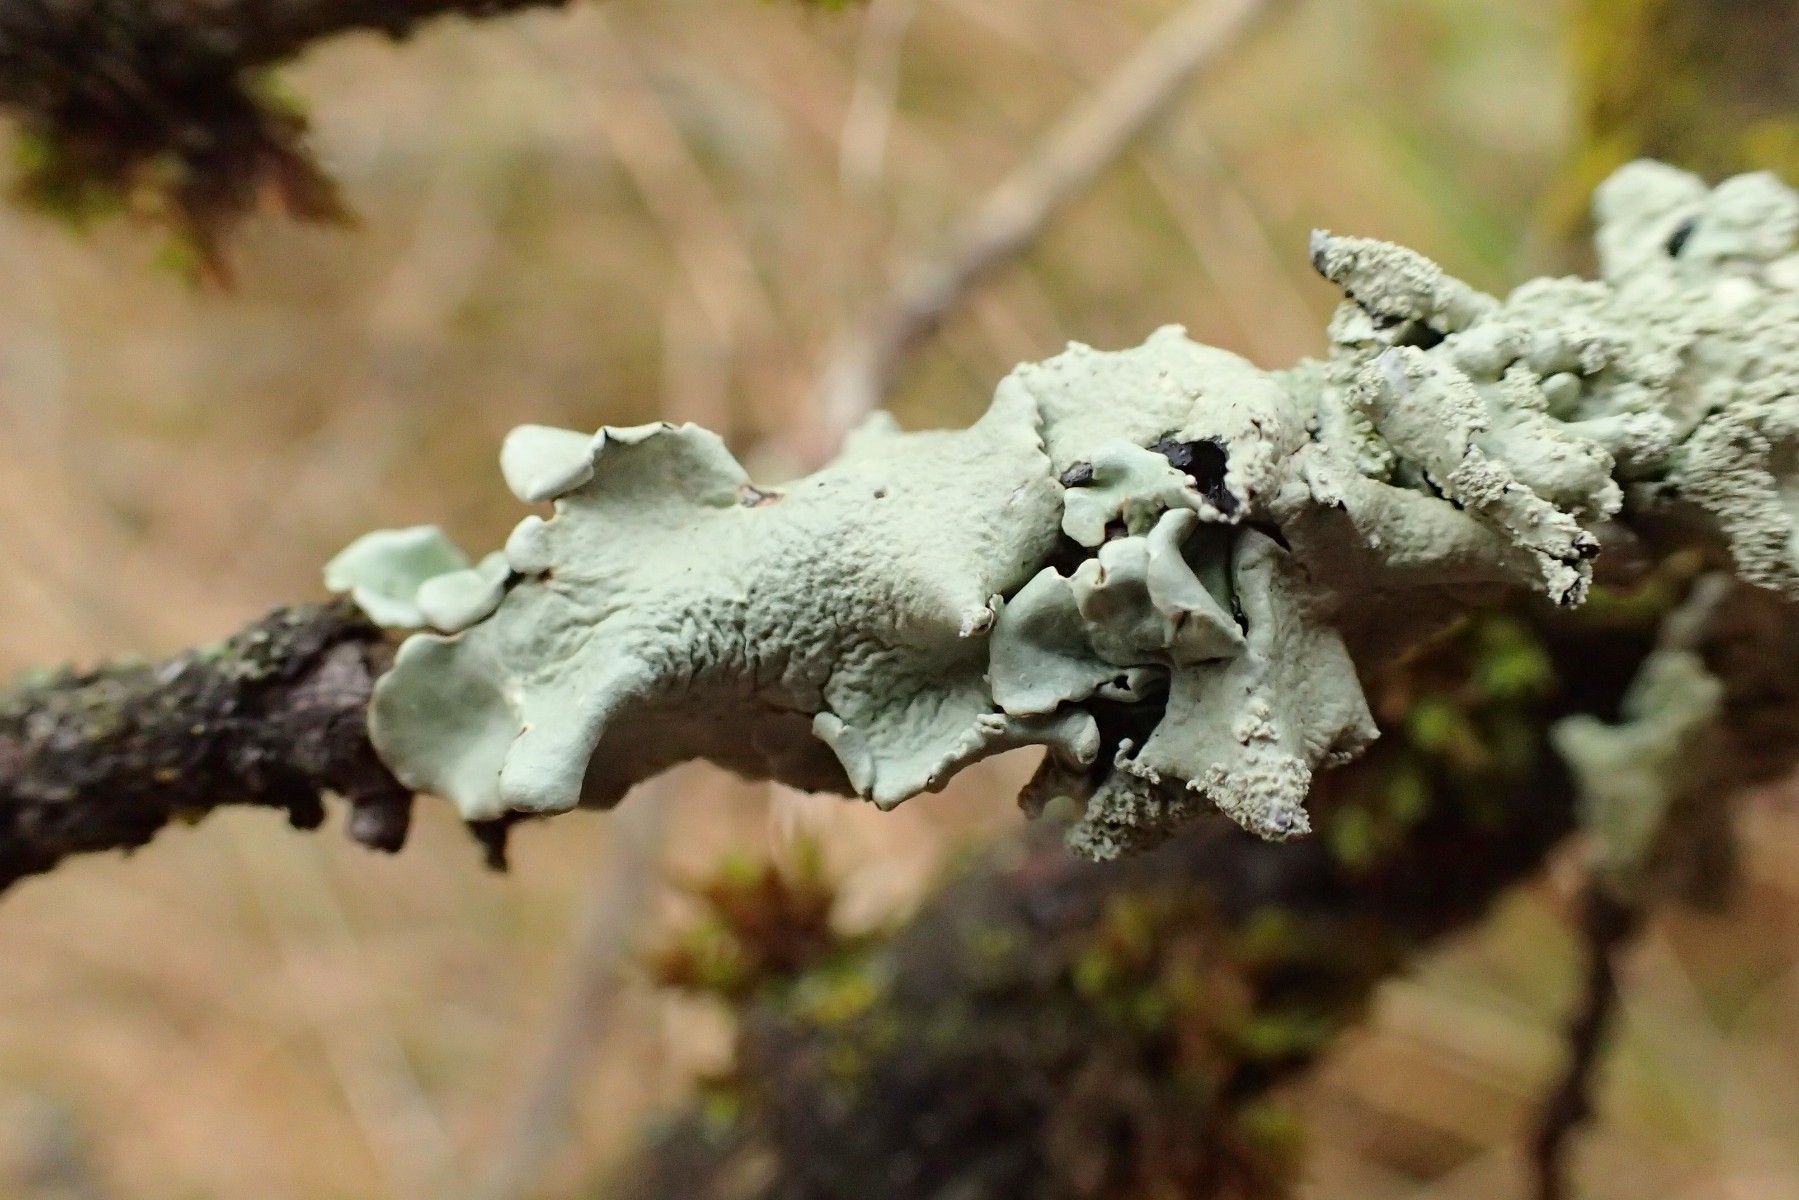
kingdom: Fungi
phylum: Ascomycota
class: Lecanoromycetes
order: Lecanorales
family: Parmeliaceae
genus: Flavoparmelia
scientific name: Flavoparmelia caperata
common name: gulgrøn skållav
